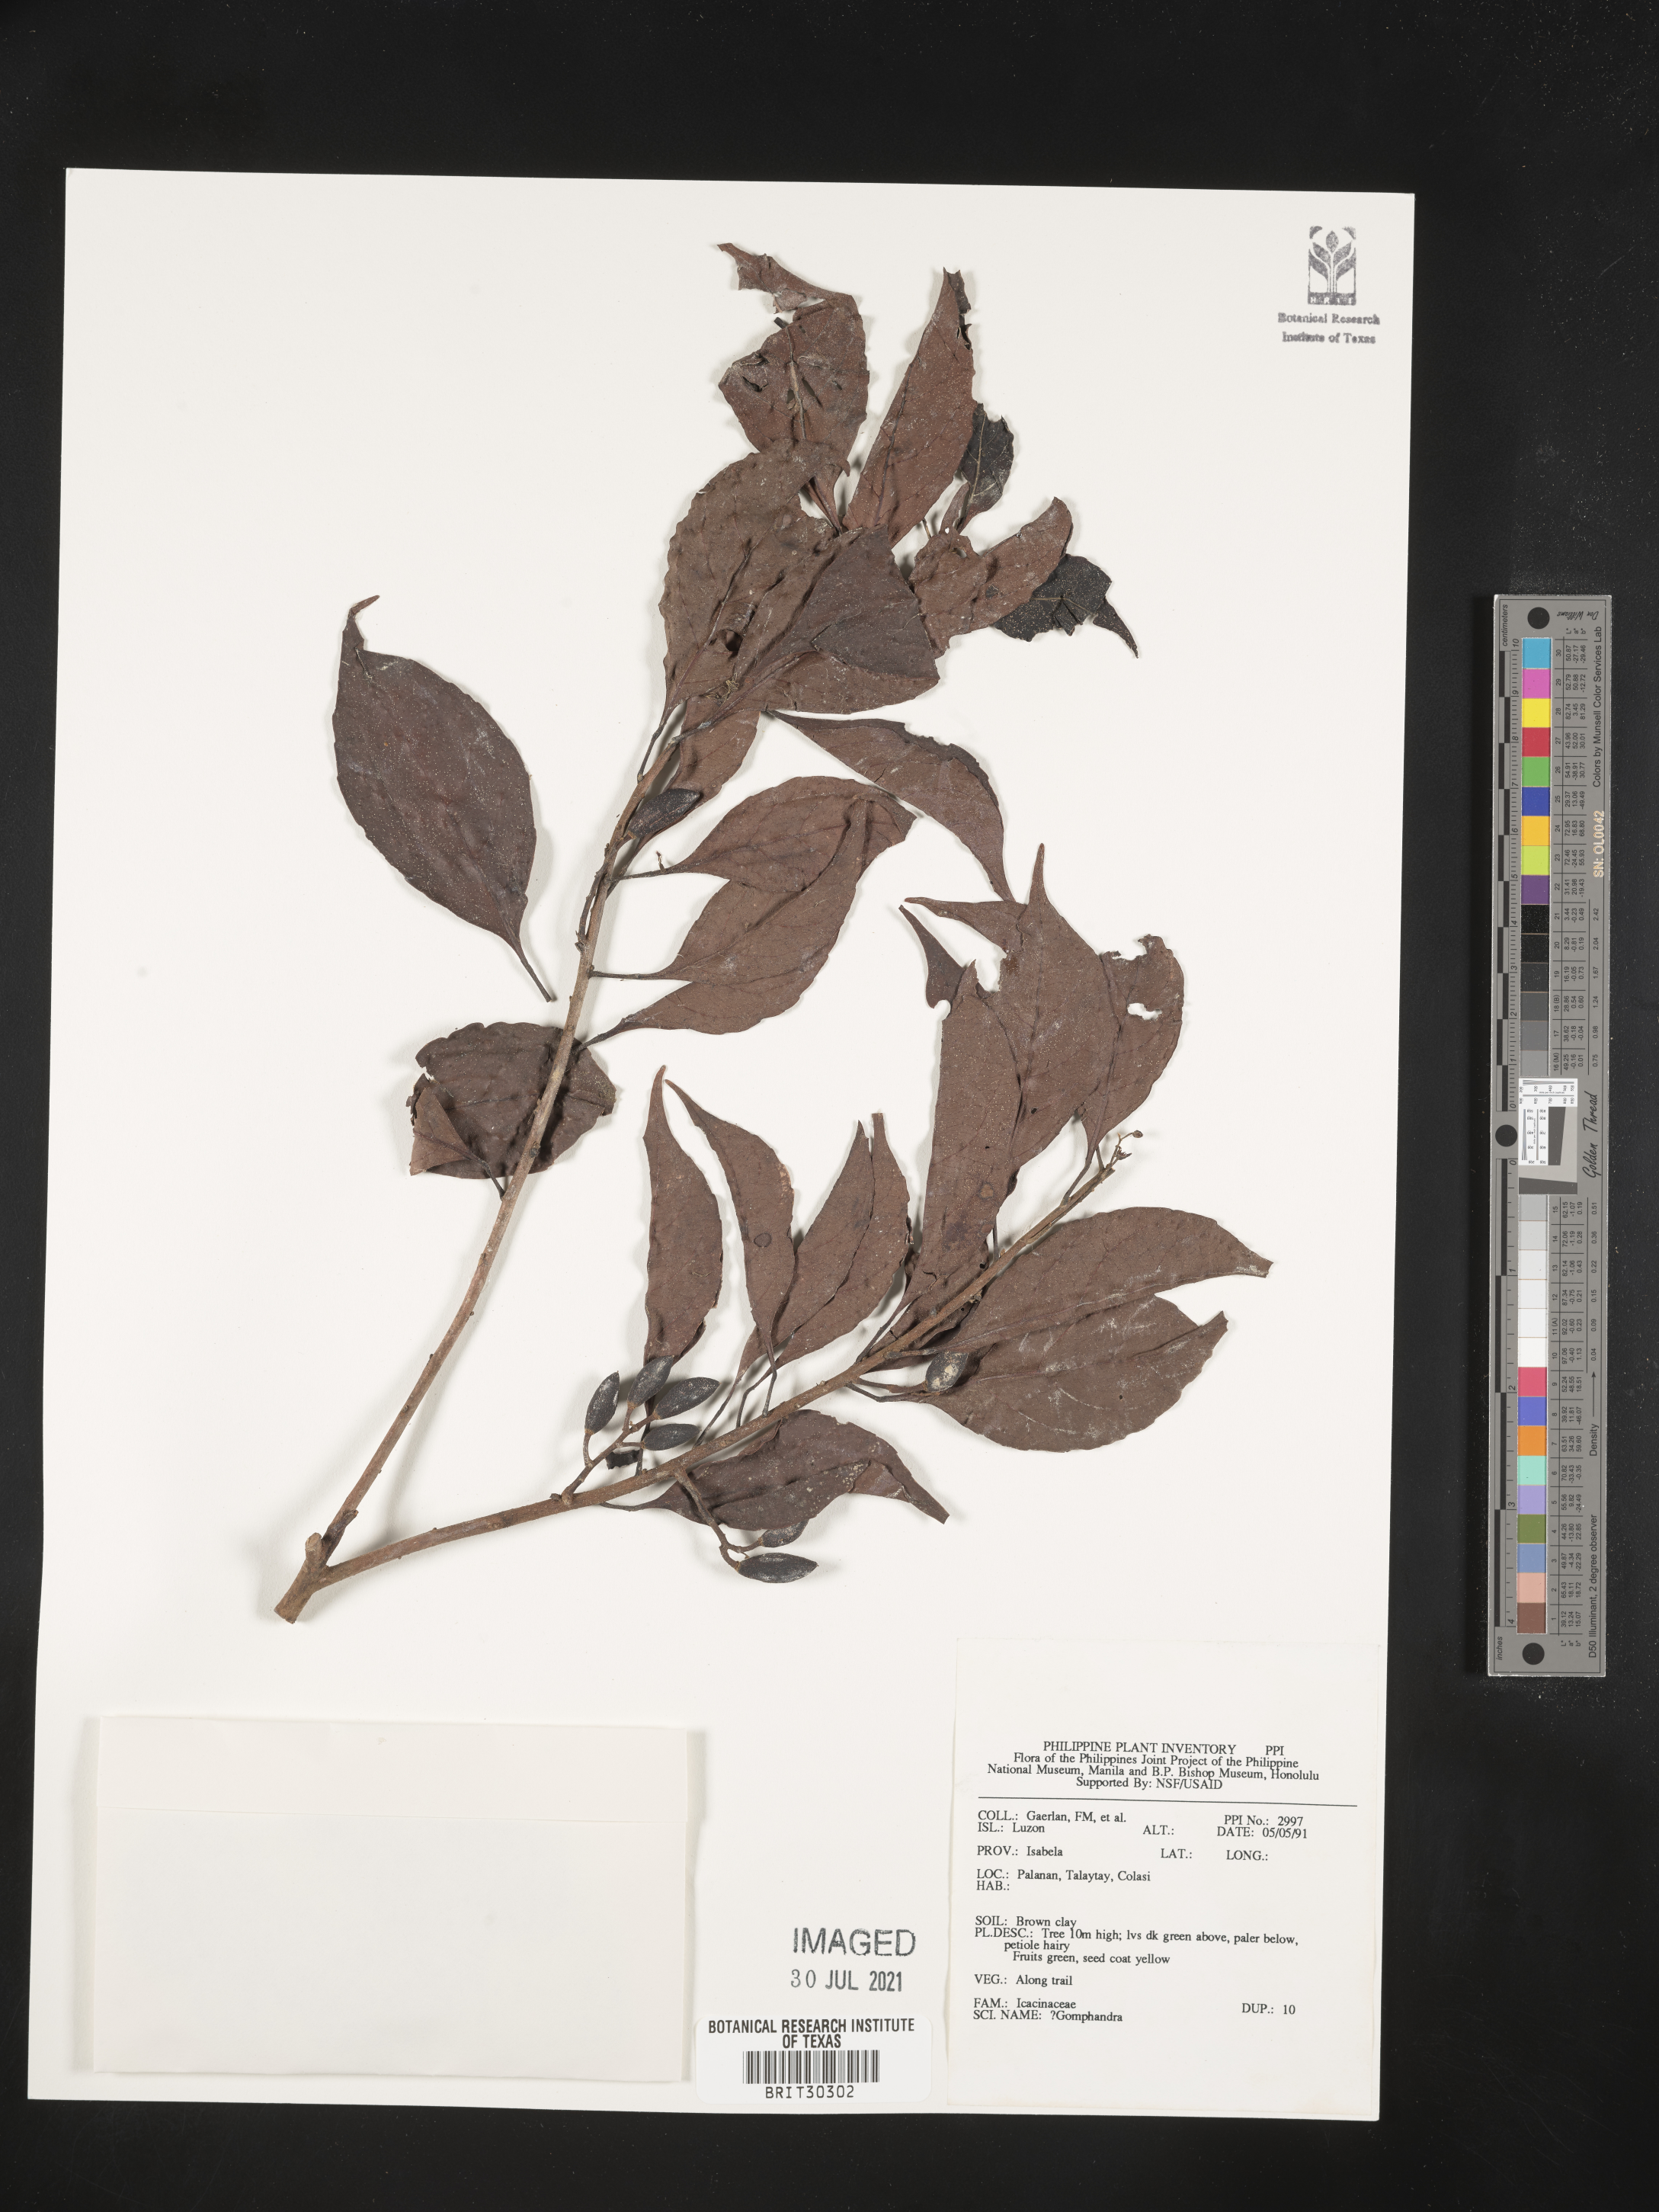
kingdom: Plantae
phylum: Tracheophyta
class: Magnoliopsida
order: Cardiopteridales
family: Stemonuraceae
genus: Gomphandra
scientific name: Gomphandra
